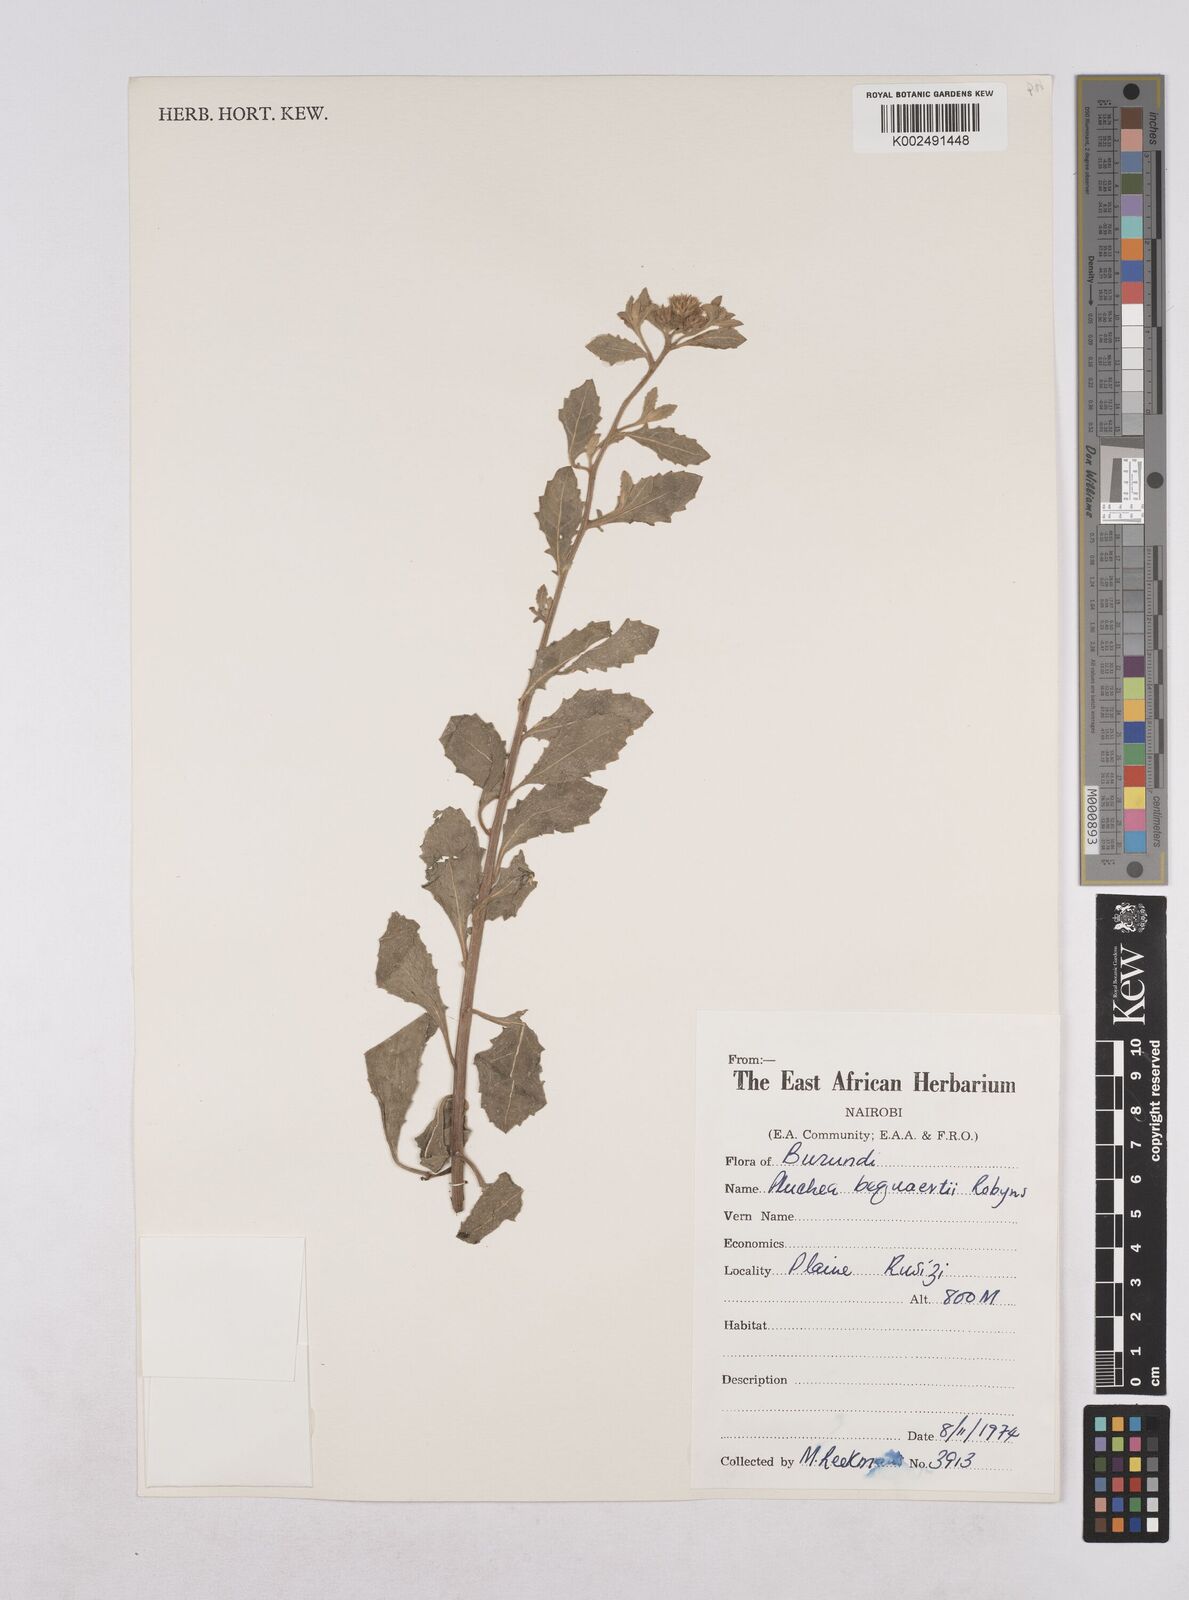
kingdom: Plantae
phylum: Tracheophyta
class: Magnoliopsida
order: Asterales
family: Asteraceae
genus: Pluchea
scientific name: Pluchea sordida
